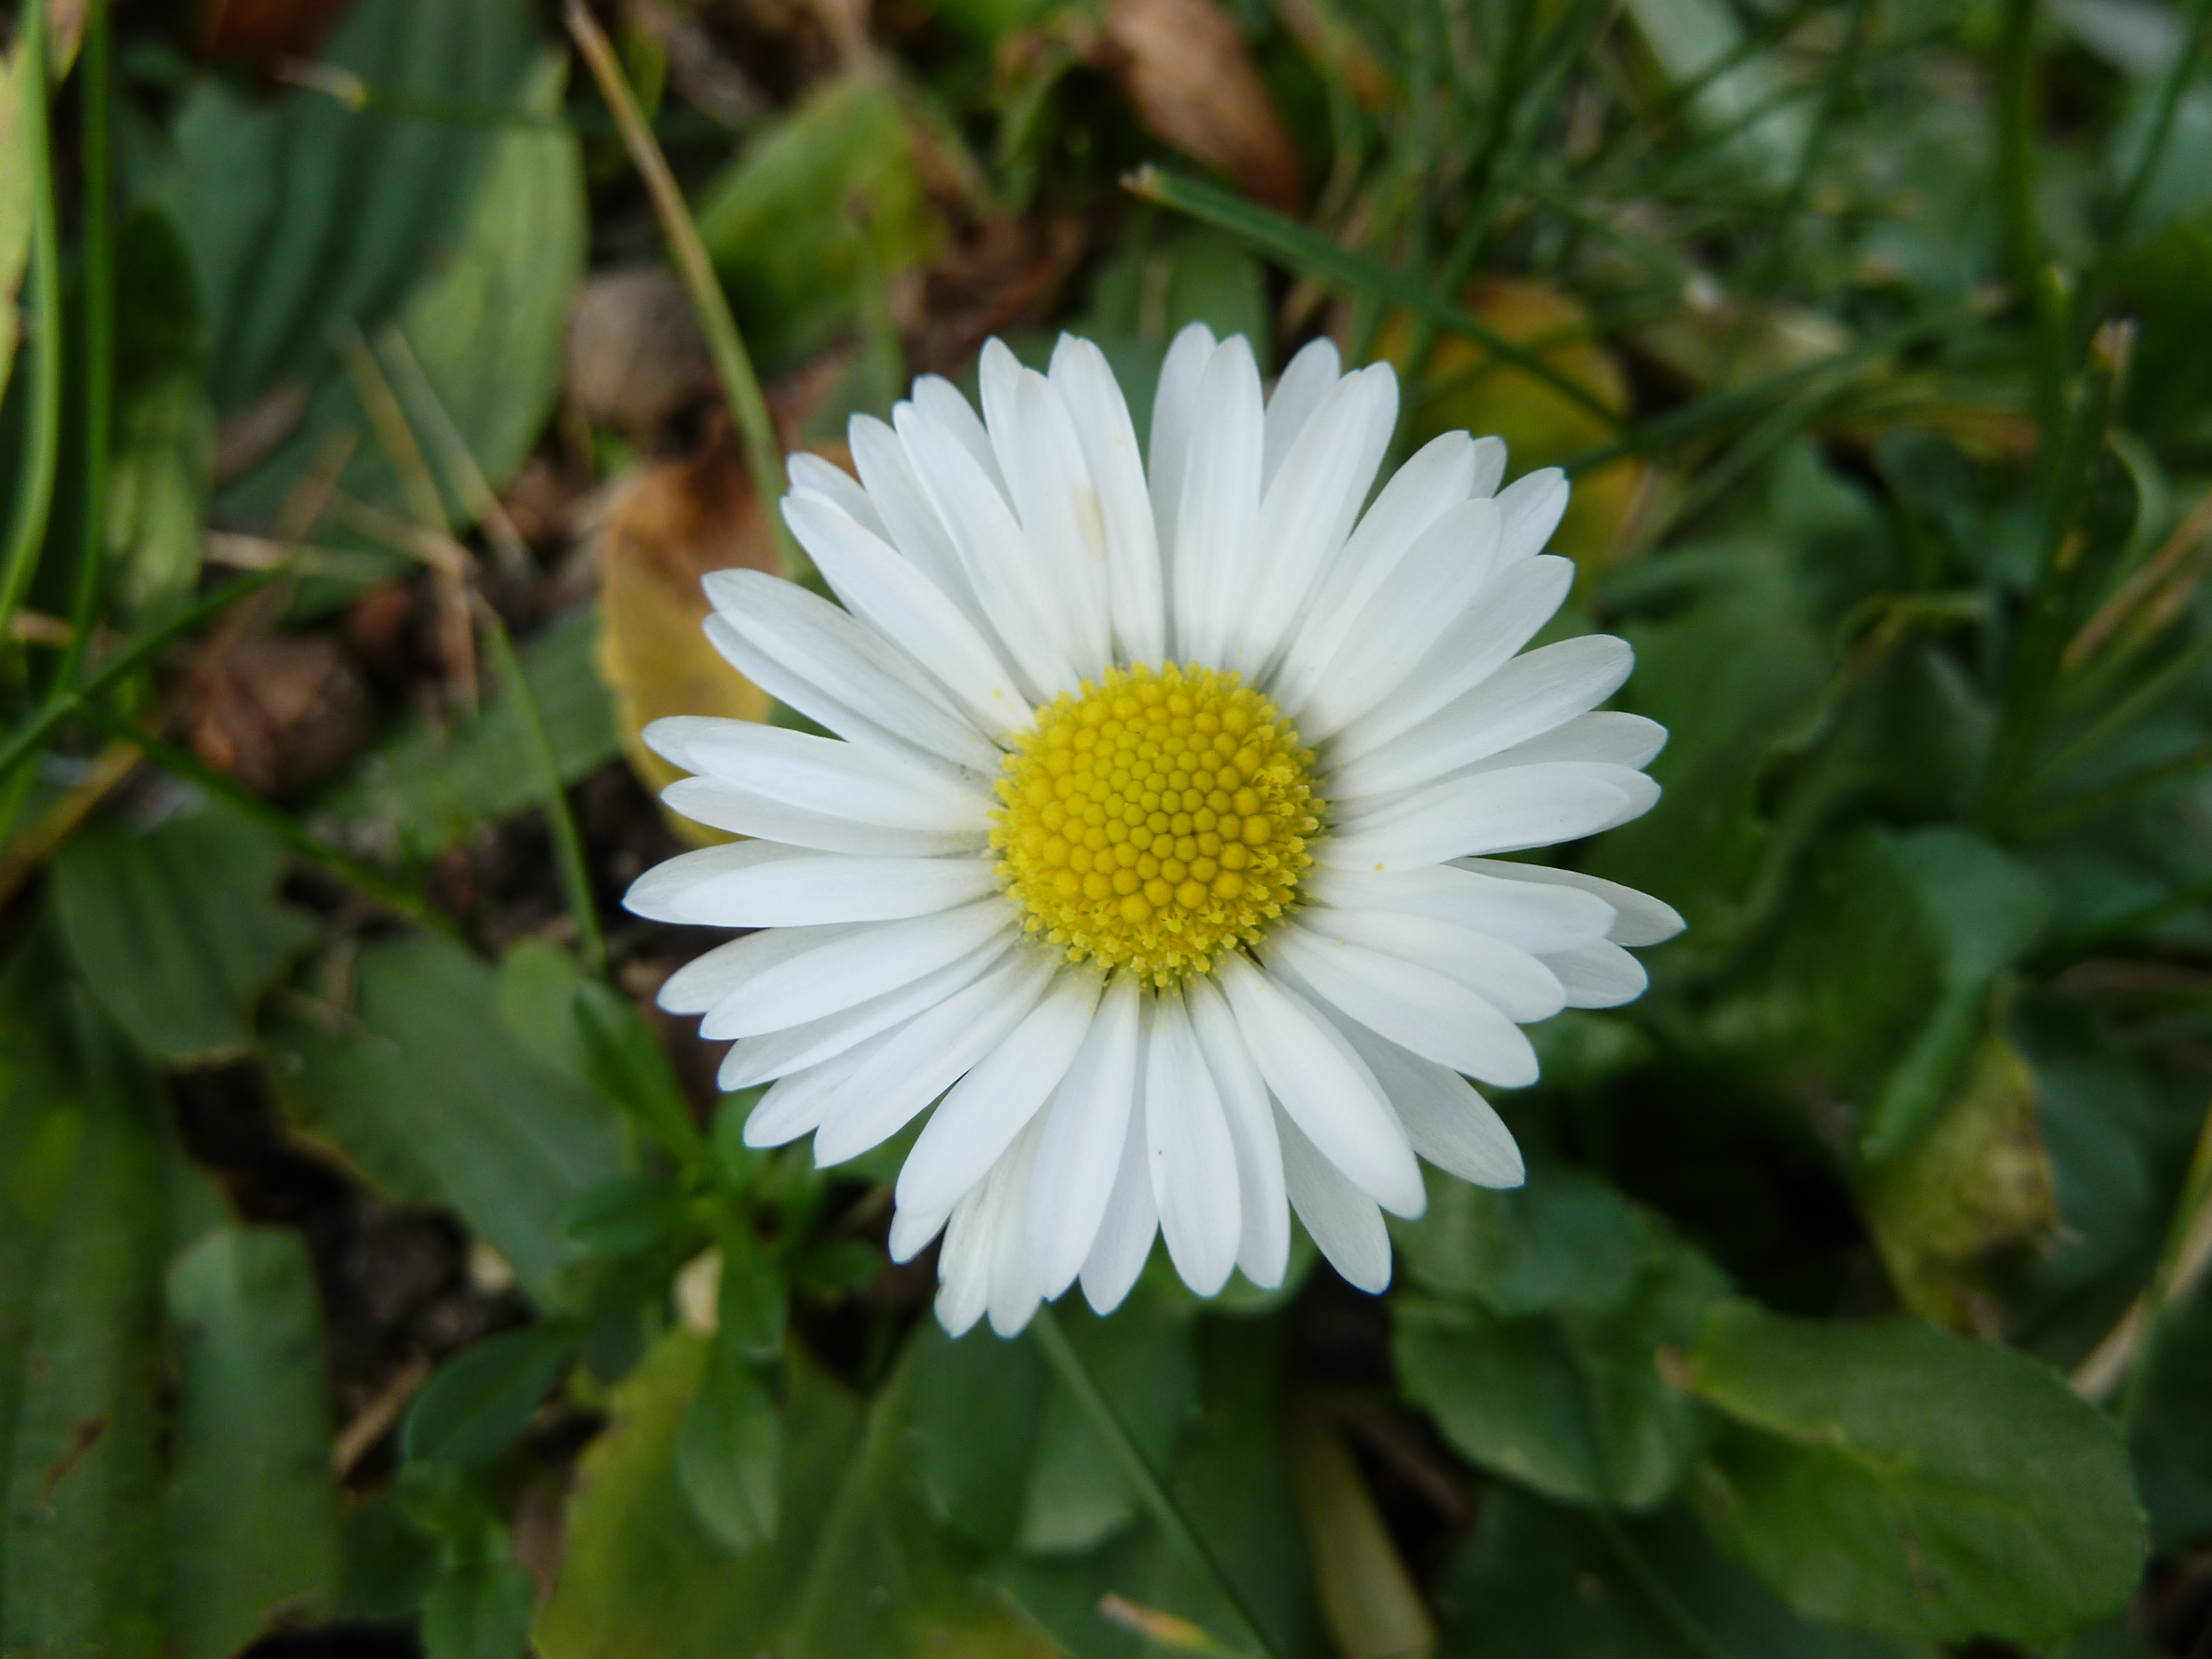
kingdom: Plantae
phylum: Tracheophyta
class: Magnoliopsida
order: Asterales
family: Asteraceae
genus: Bellis
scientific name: Bellis perennis
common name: Lawndaisy
